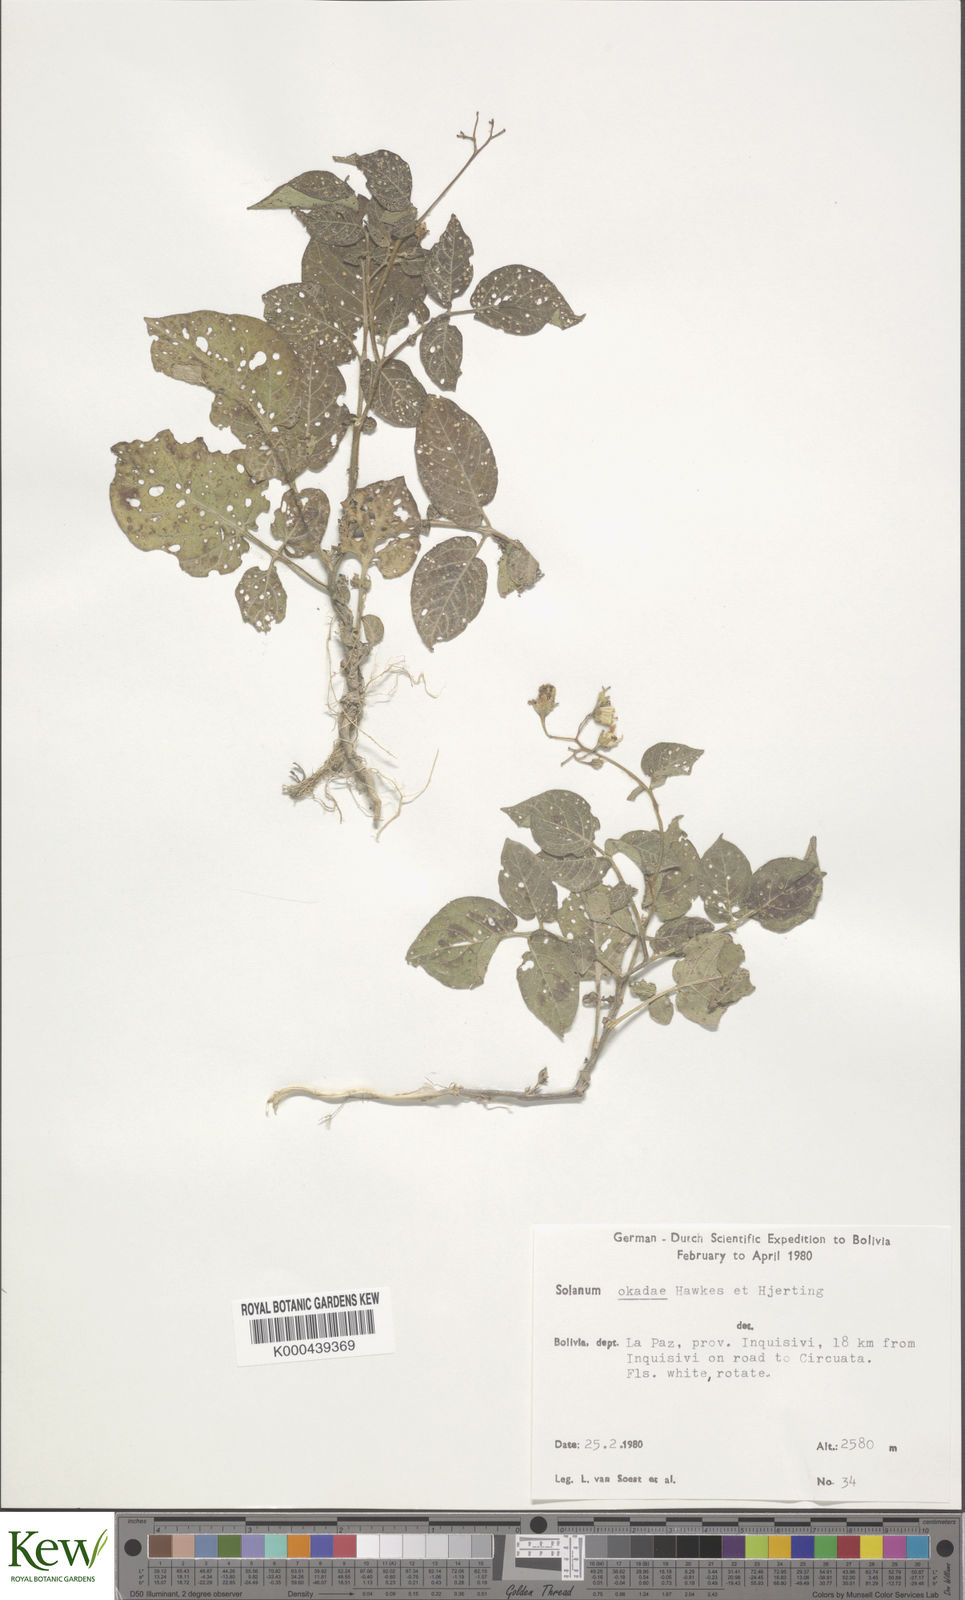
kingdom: Plantae
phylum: Tracheophyta
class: Magnoliopsida
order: Solanales
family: Solanaceae
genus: Solanum
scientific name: Solanum okadae
